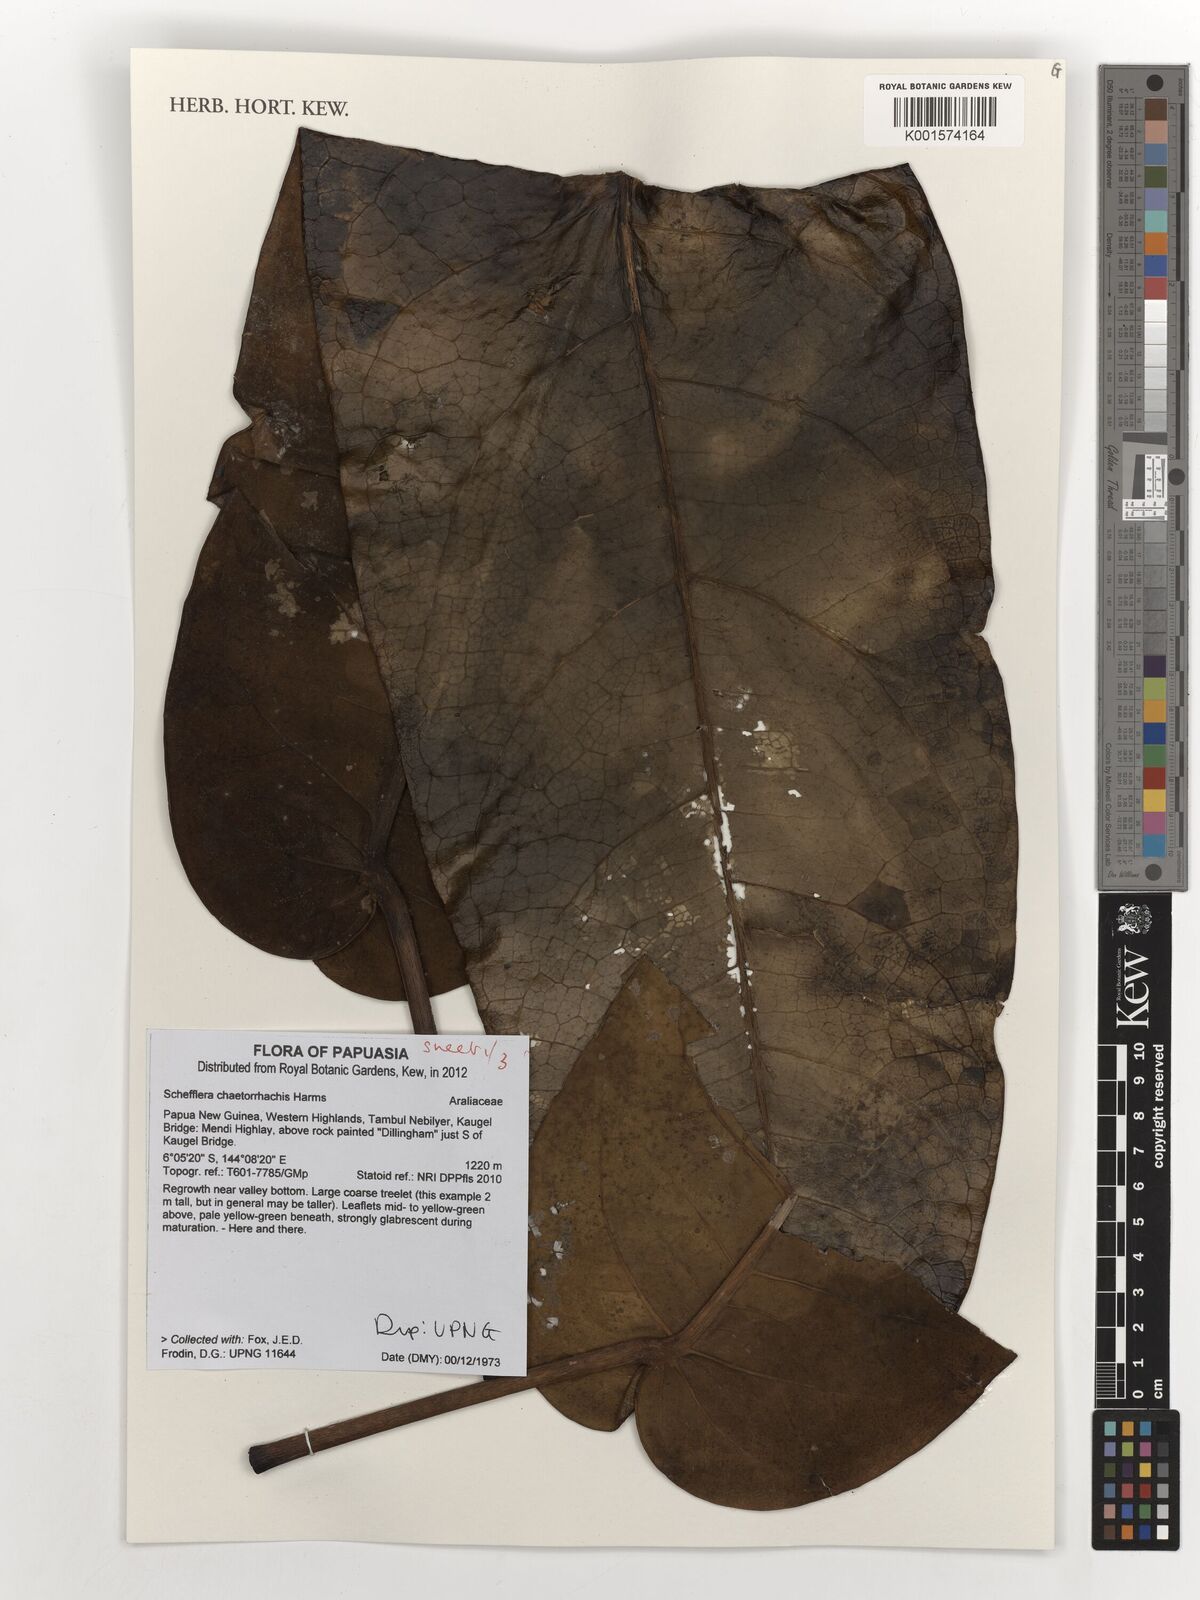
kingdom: Plantae
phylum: Tracheophyta
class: Magnoliopsida
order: Apiales
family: Araliaceae
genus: Heptapleurum
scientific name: Heptapleurum chaetorrhachis
